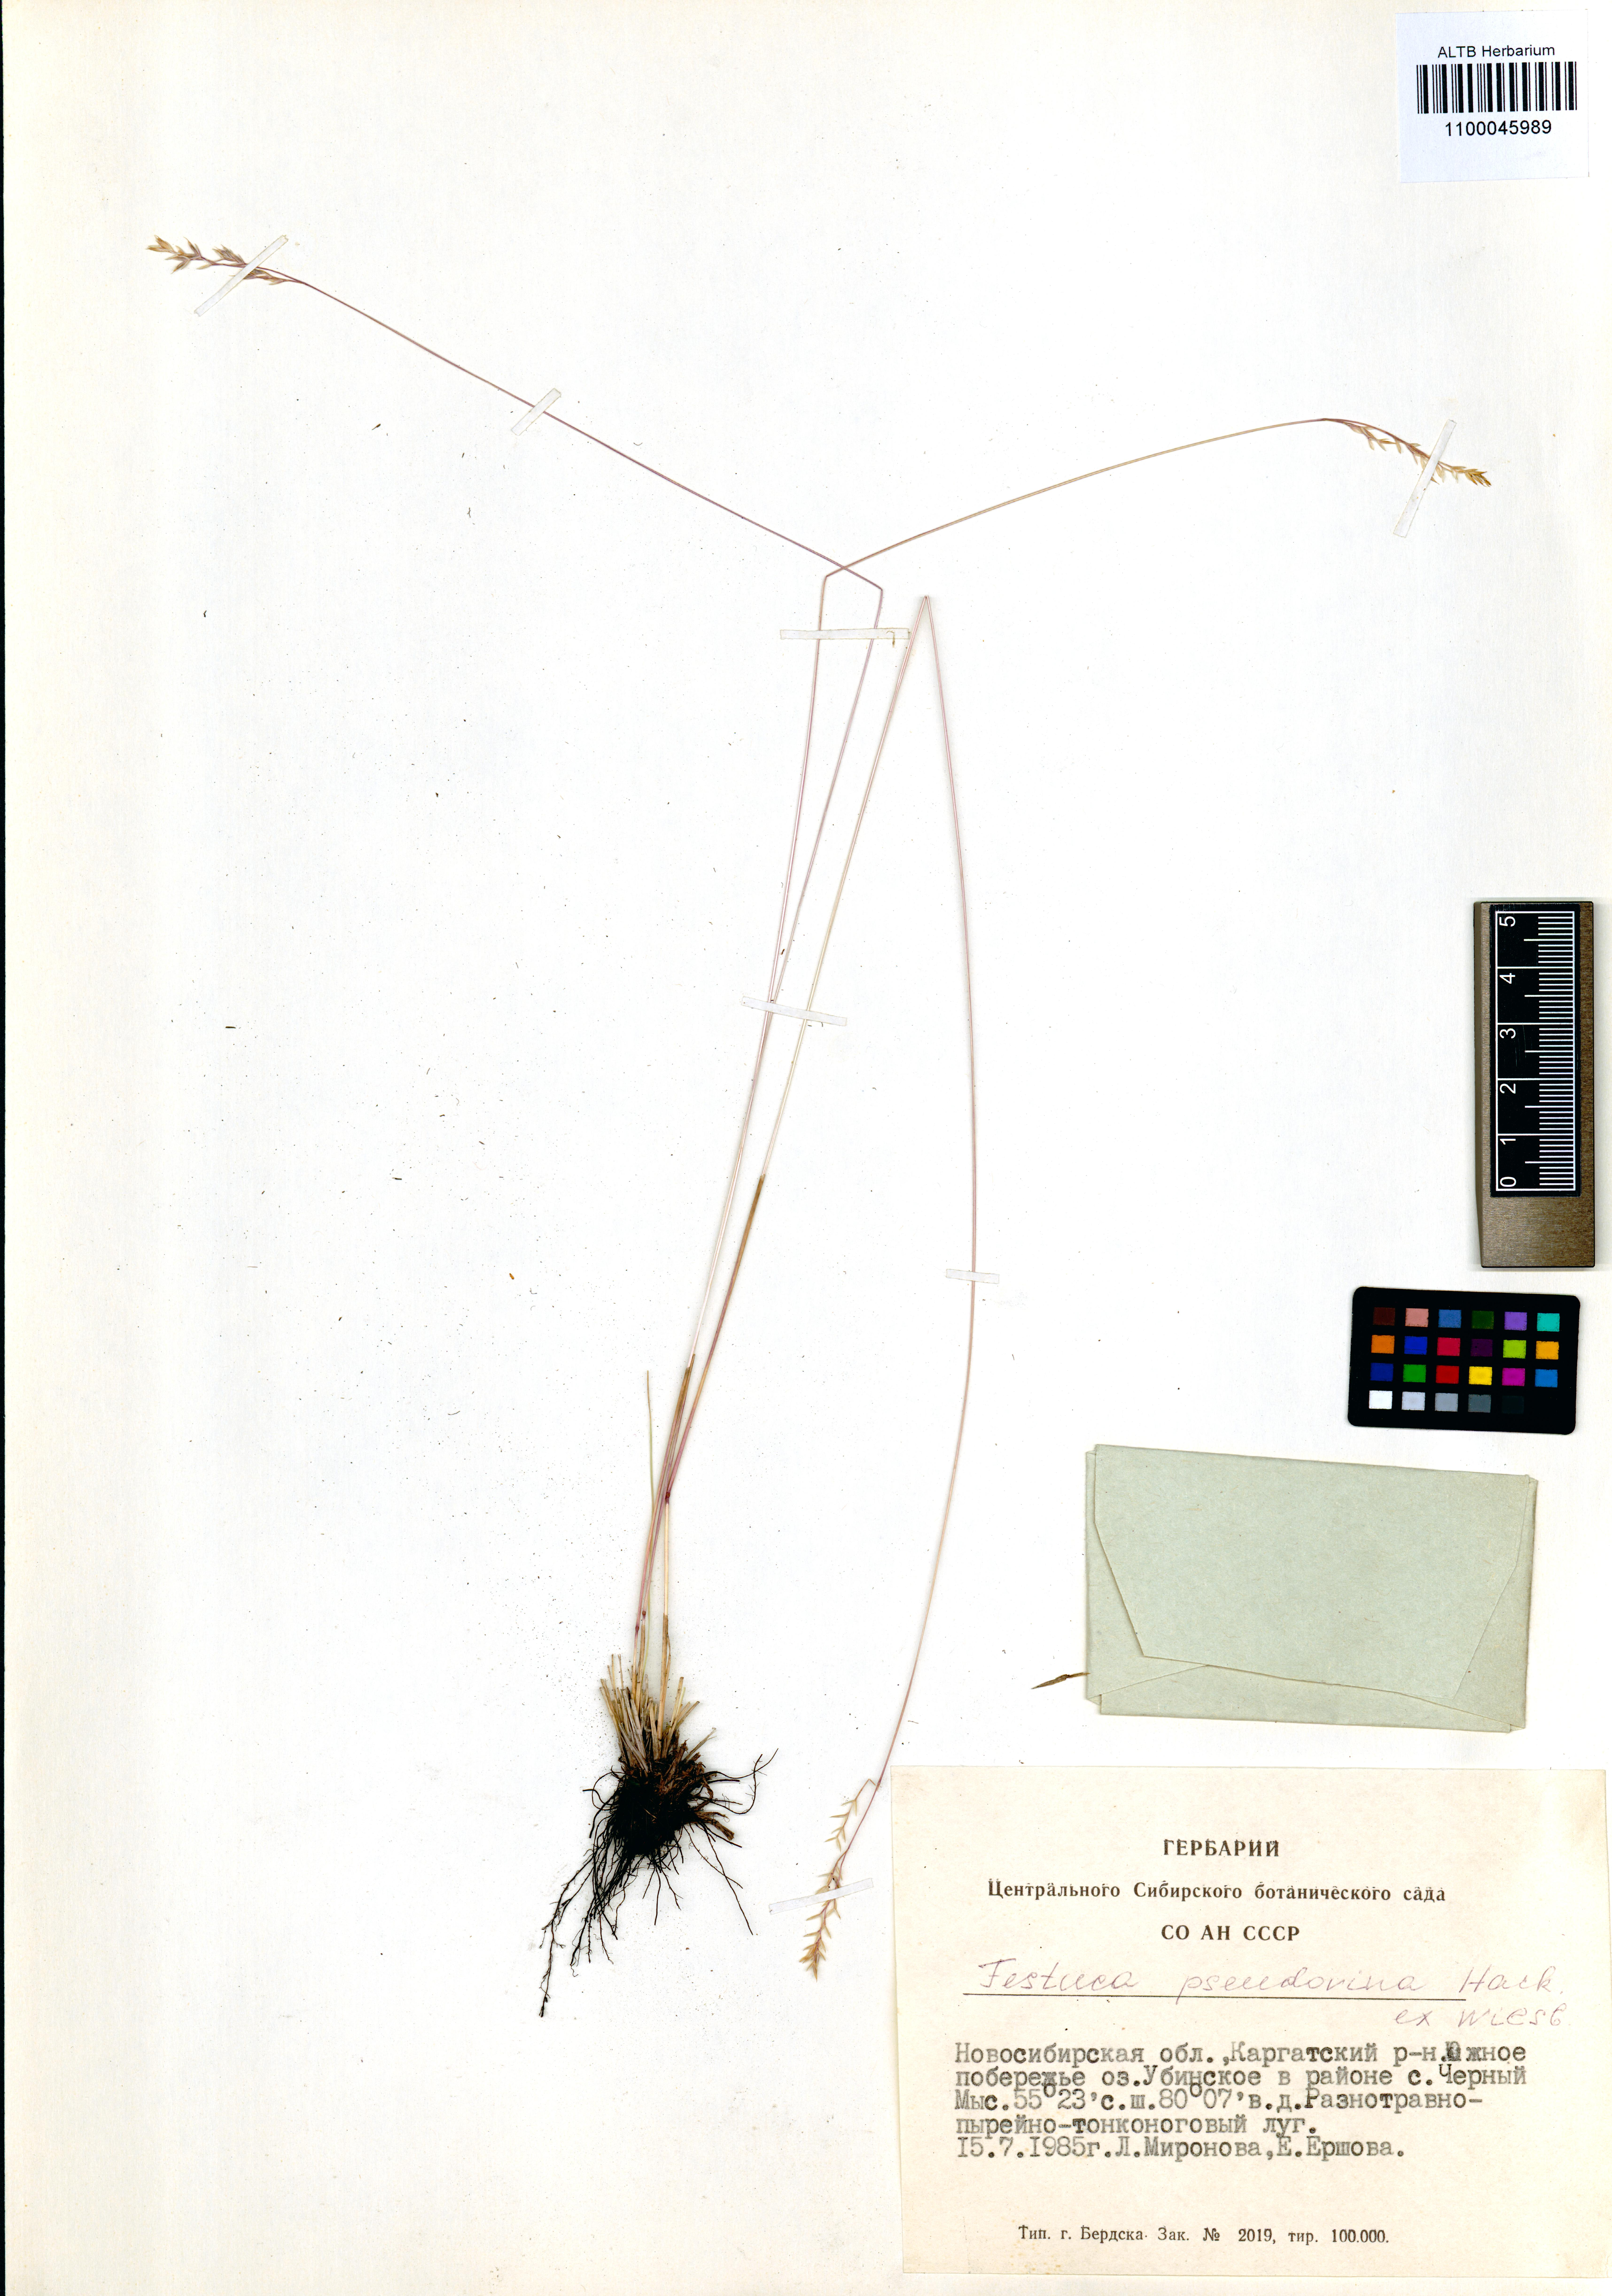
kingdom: Plantae
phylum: Tracheophyta
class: Liliopsida
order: Poales
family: Poaceae
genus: Festuca
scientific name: Festuca pulchra
